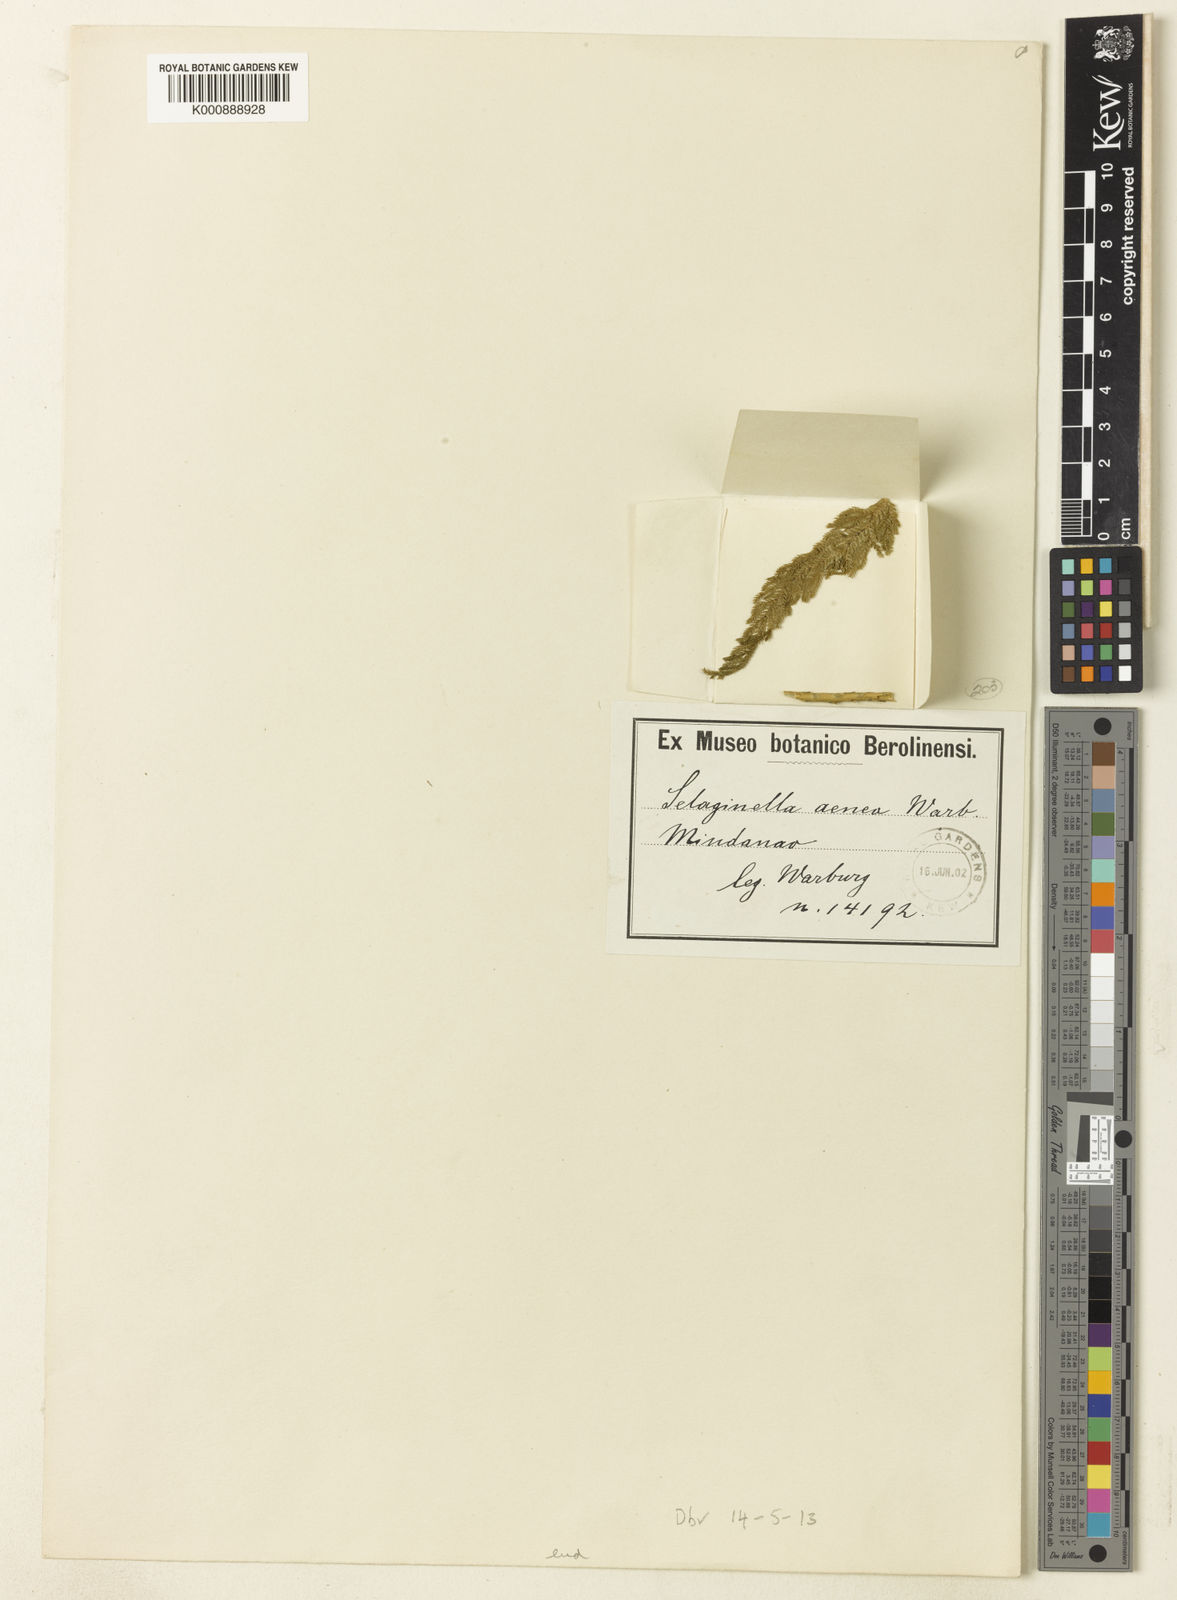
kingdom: Plantae
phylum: Tracheophyta
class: Lycopodiopsida
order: Selaginellales
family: Selaginellaceae
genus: Selaginella
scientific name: Selaginella aenea
